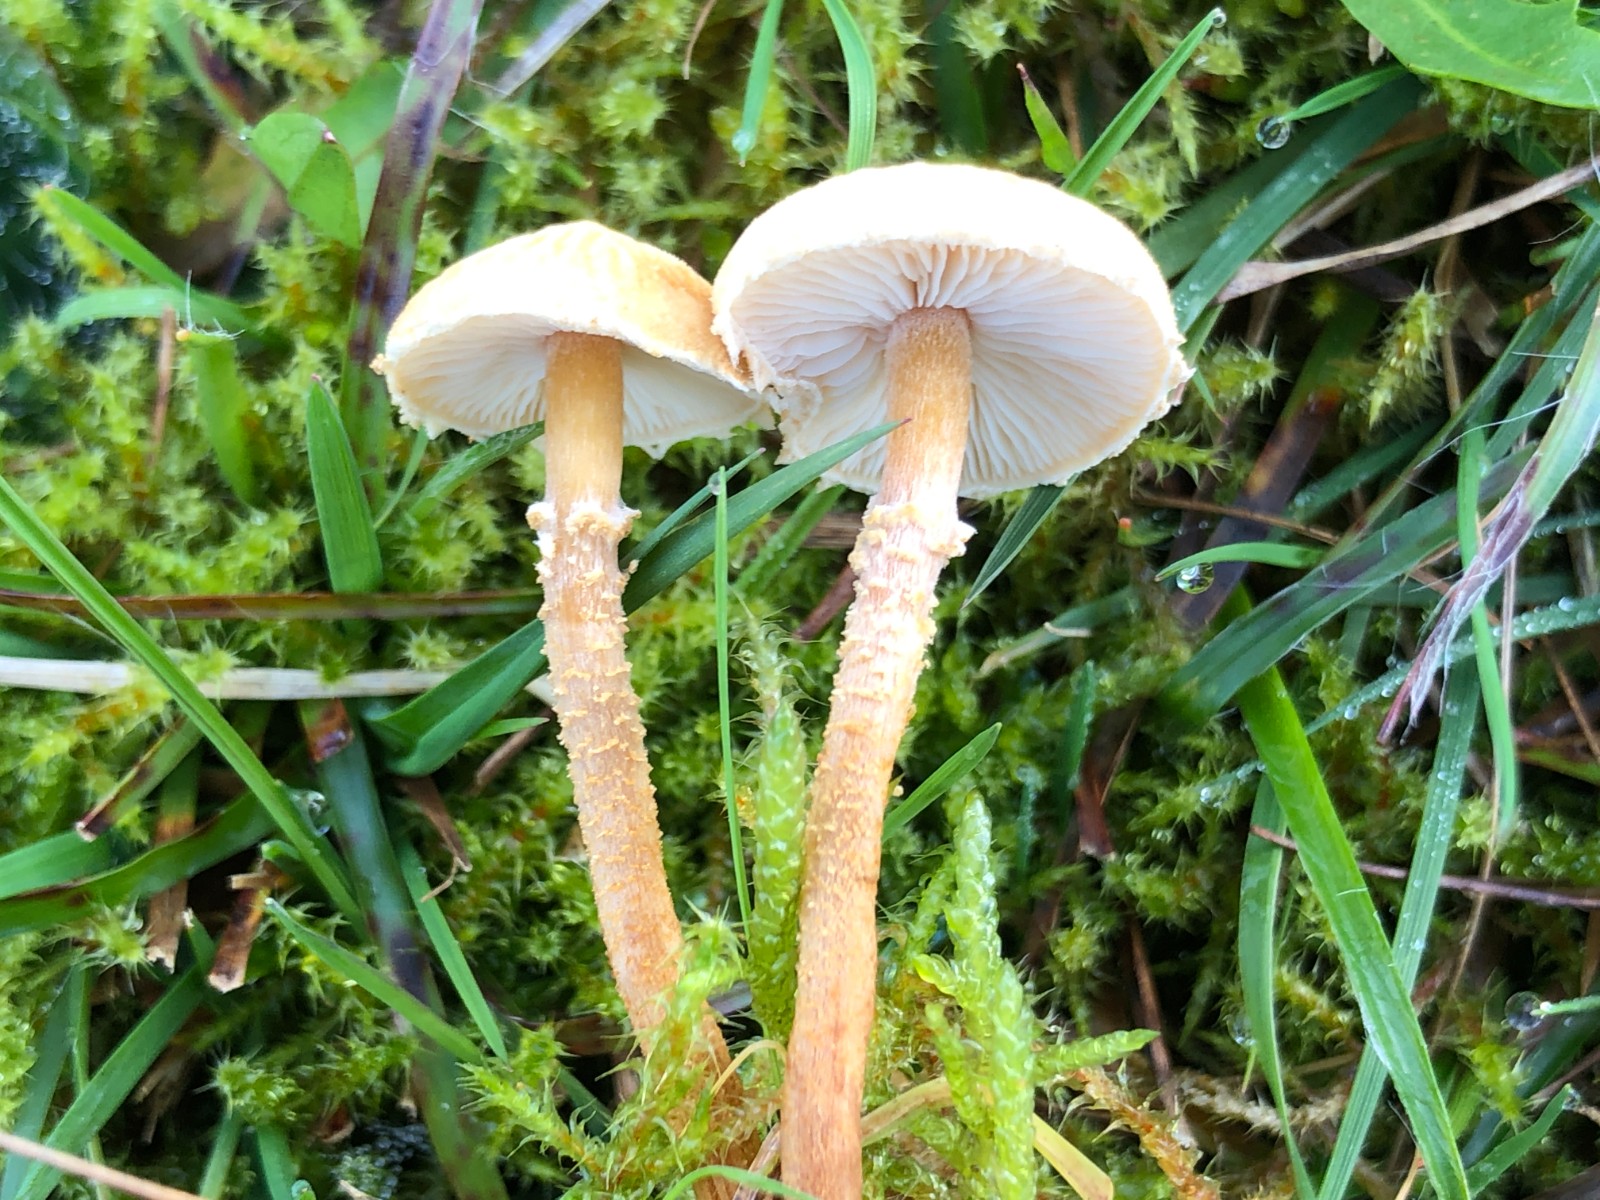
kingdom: Fungi
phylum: Basidiomycota
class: Agaricomycetes
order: Agaricales
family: Tricholomataceae
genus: Cystoderma
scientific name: Cystoderma amianthinum
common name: okkergul grynhat
